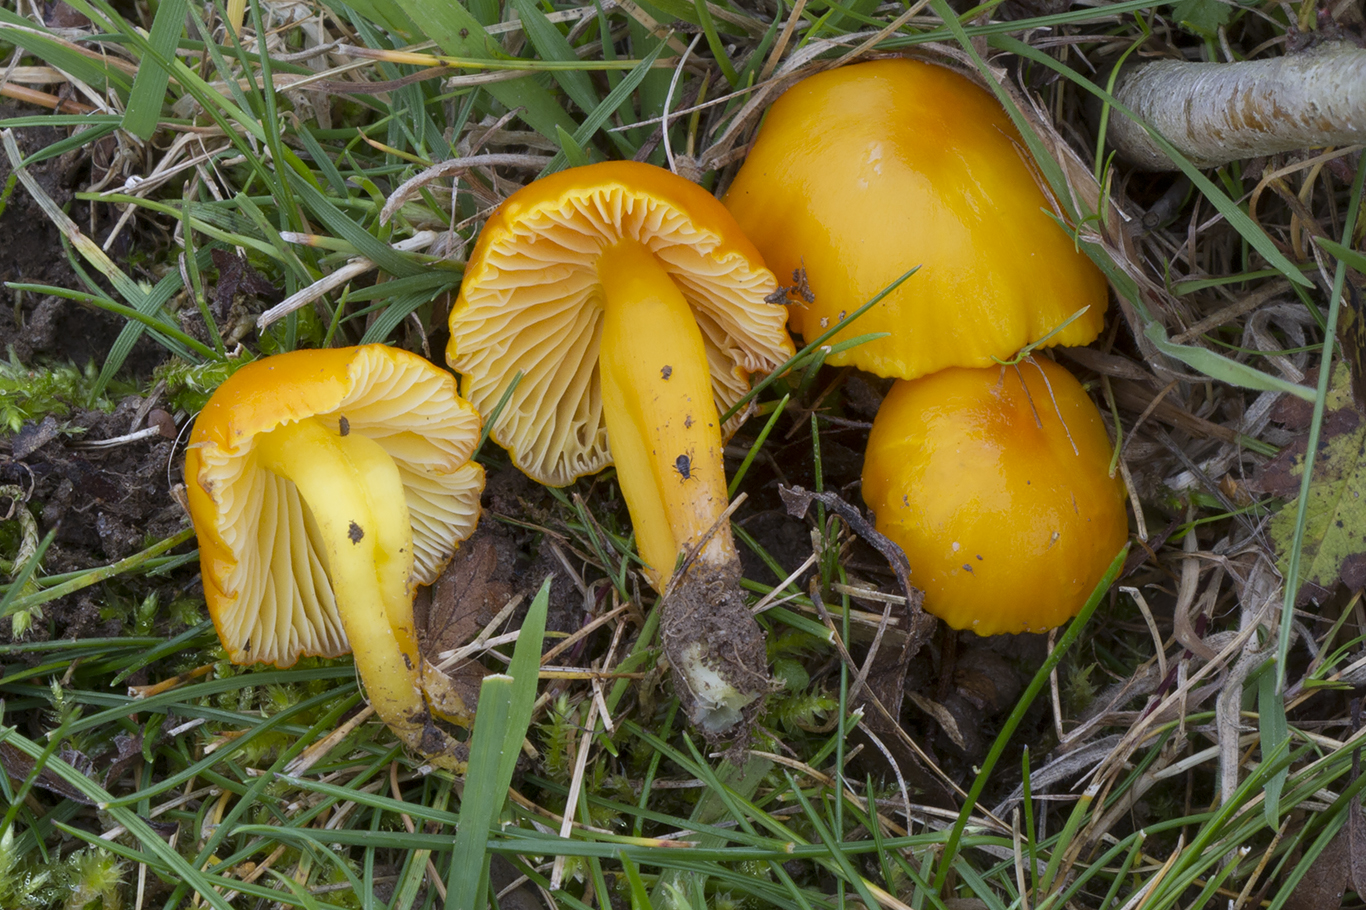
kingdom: Fungi
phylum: Basidiomycota
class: Agaricomycetes
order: Agaricales
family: Hygrophoraceae
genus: Hygrocybe
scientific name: Hygrocybe ceracea
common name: voksgul vokshat
